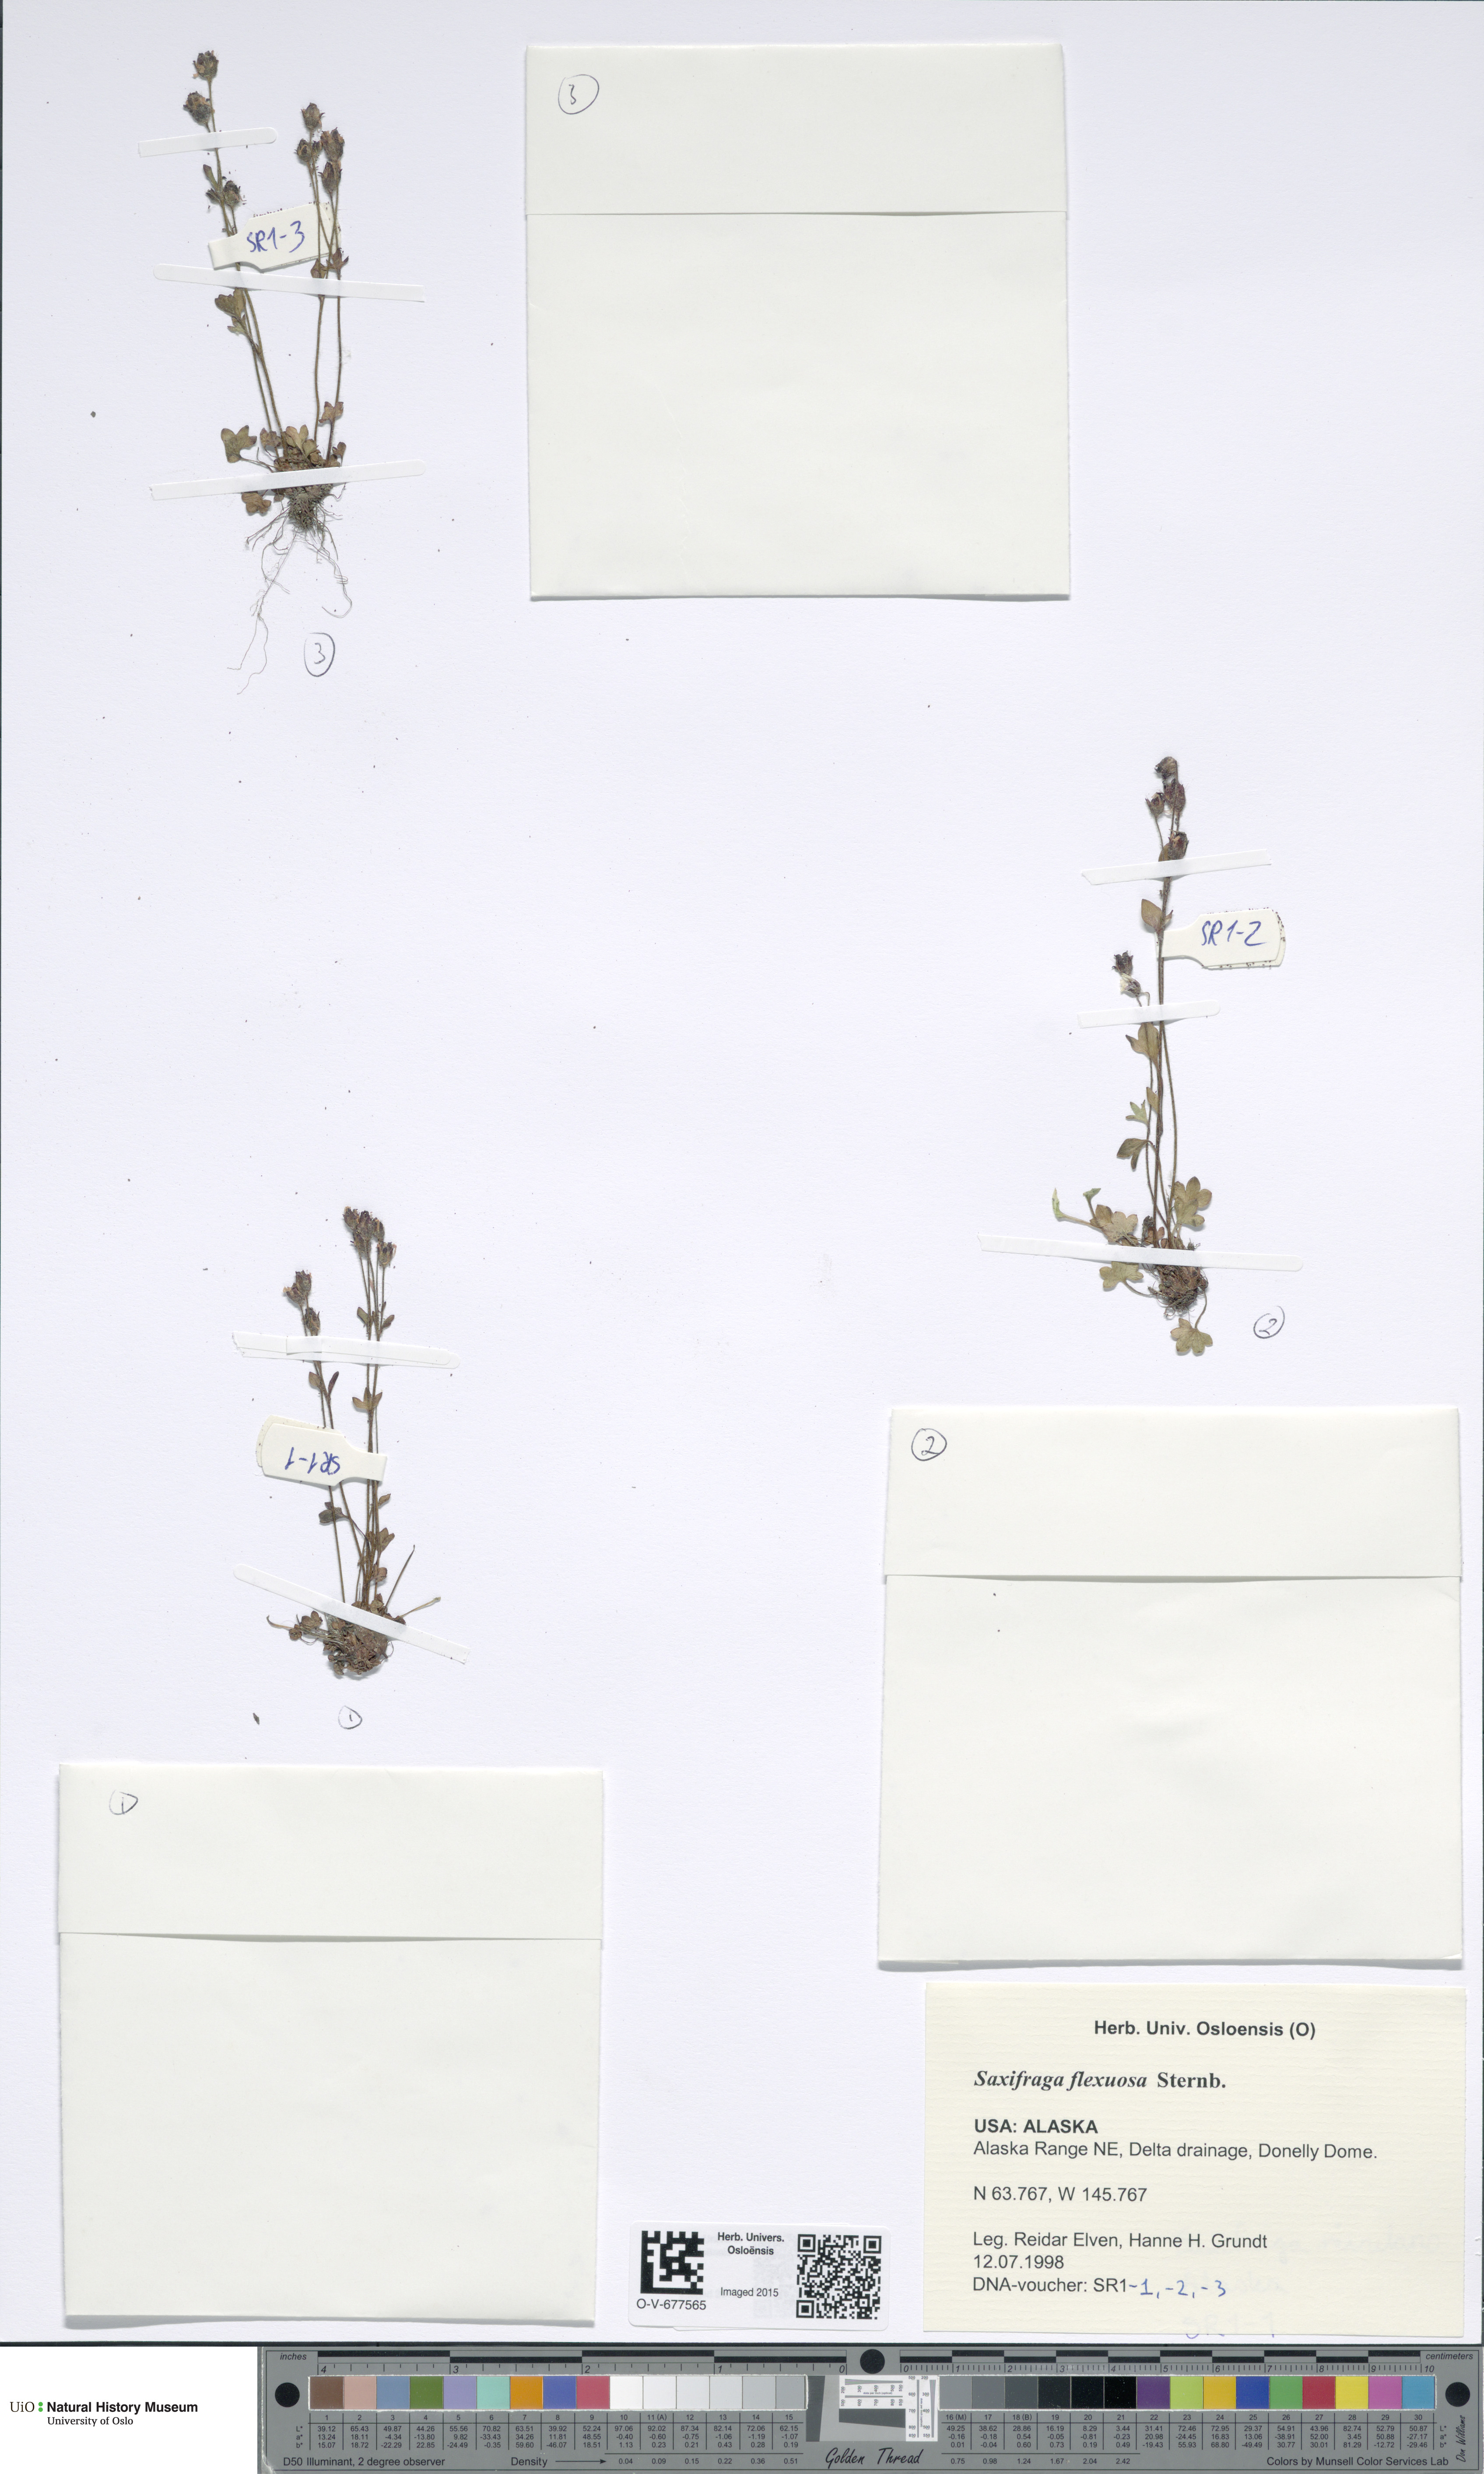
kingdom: Plantae
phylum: Tracheophyta
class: Magnoliopsida
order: Saxifragales
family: Saxifragaceae
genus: Saxifraga
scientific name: Saxifraga hyperborea
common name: Arctic saxifrage
